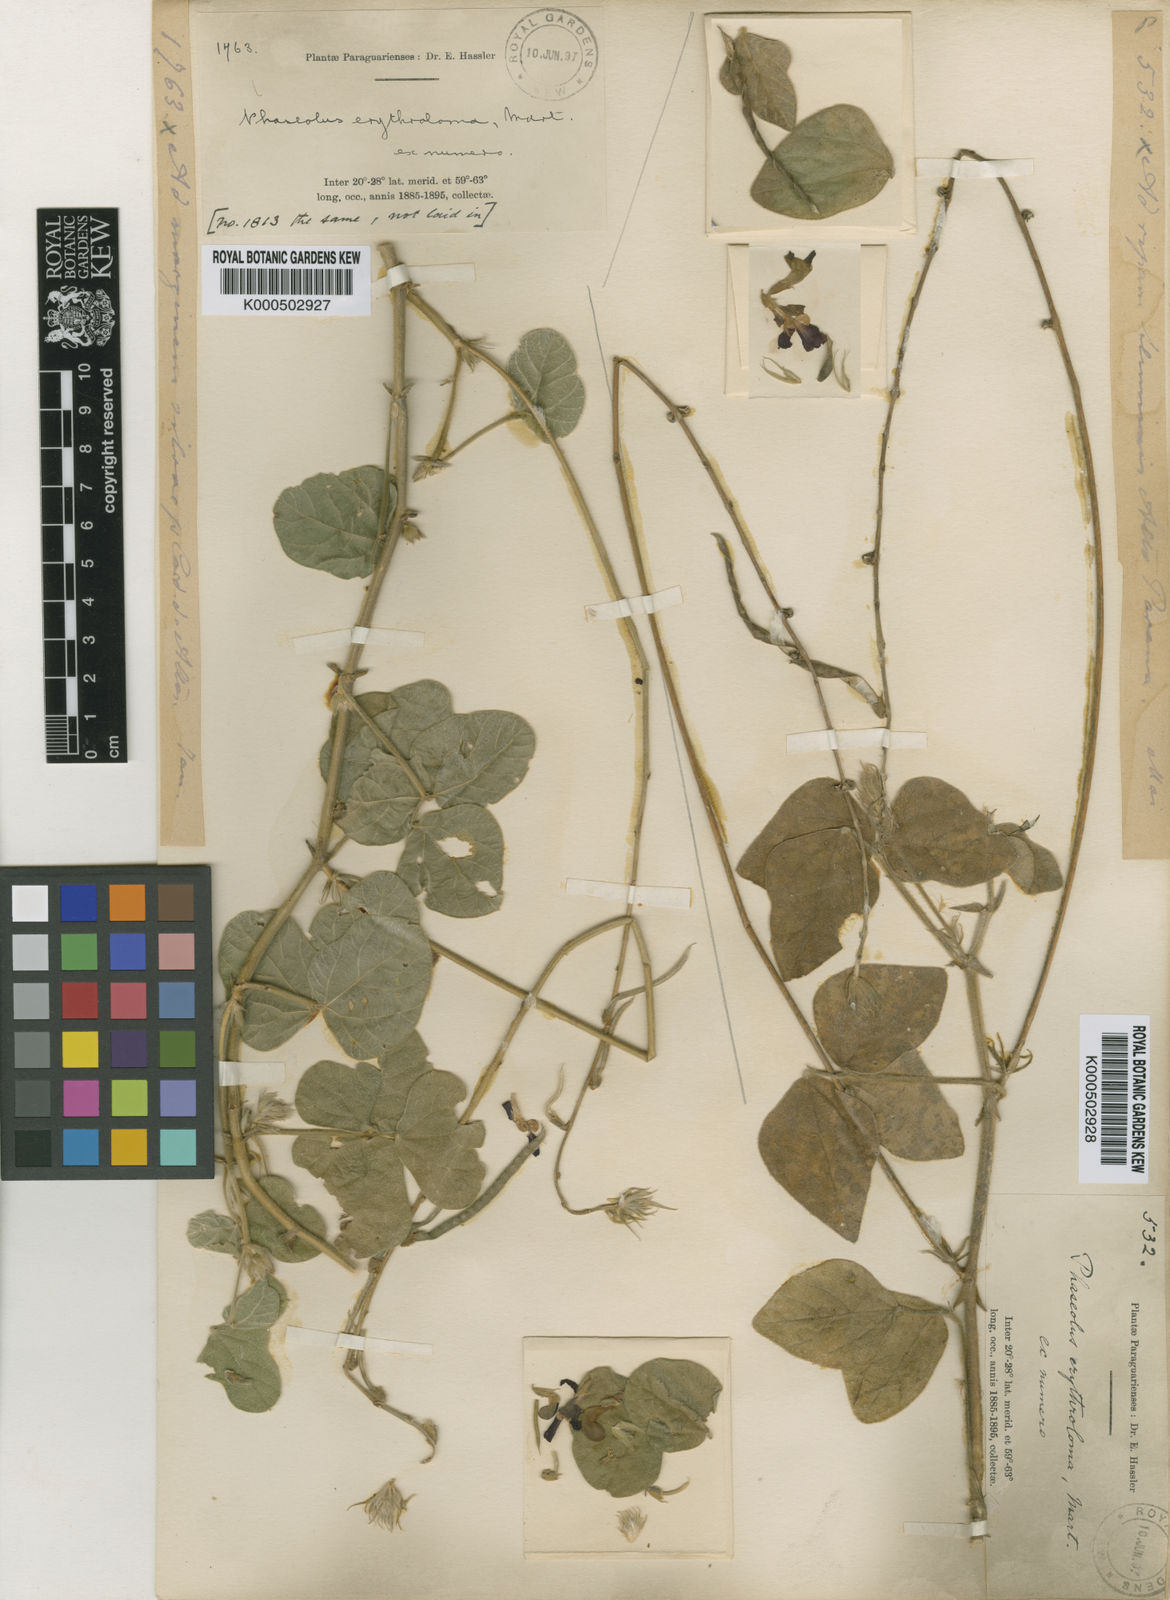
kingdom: Plantae
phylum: Tracheophyta
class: Magnoliopsida
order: Fabales
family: Fabaceae
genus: Macroptilium
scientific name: Macroptilium
